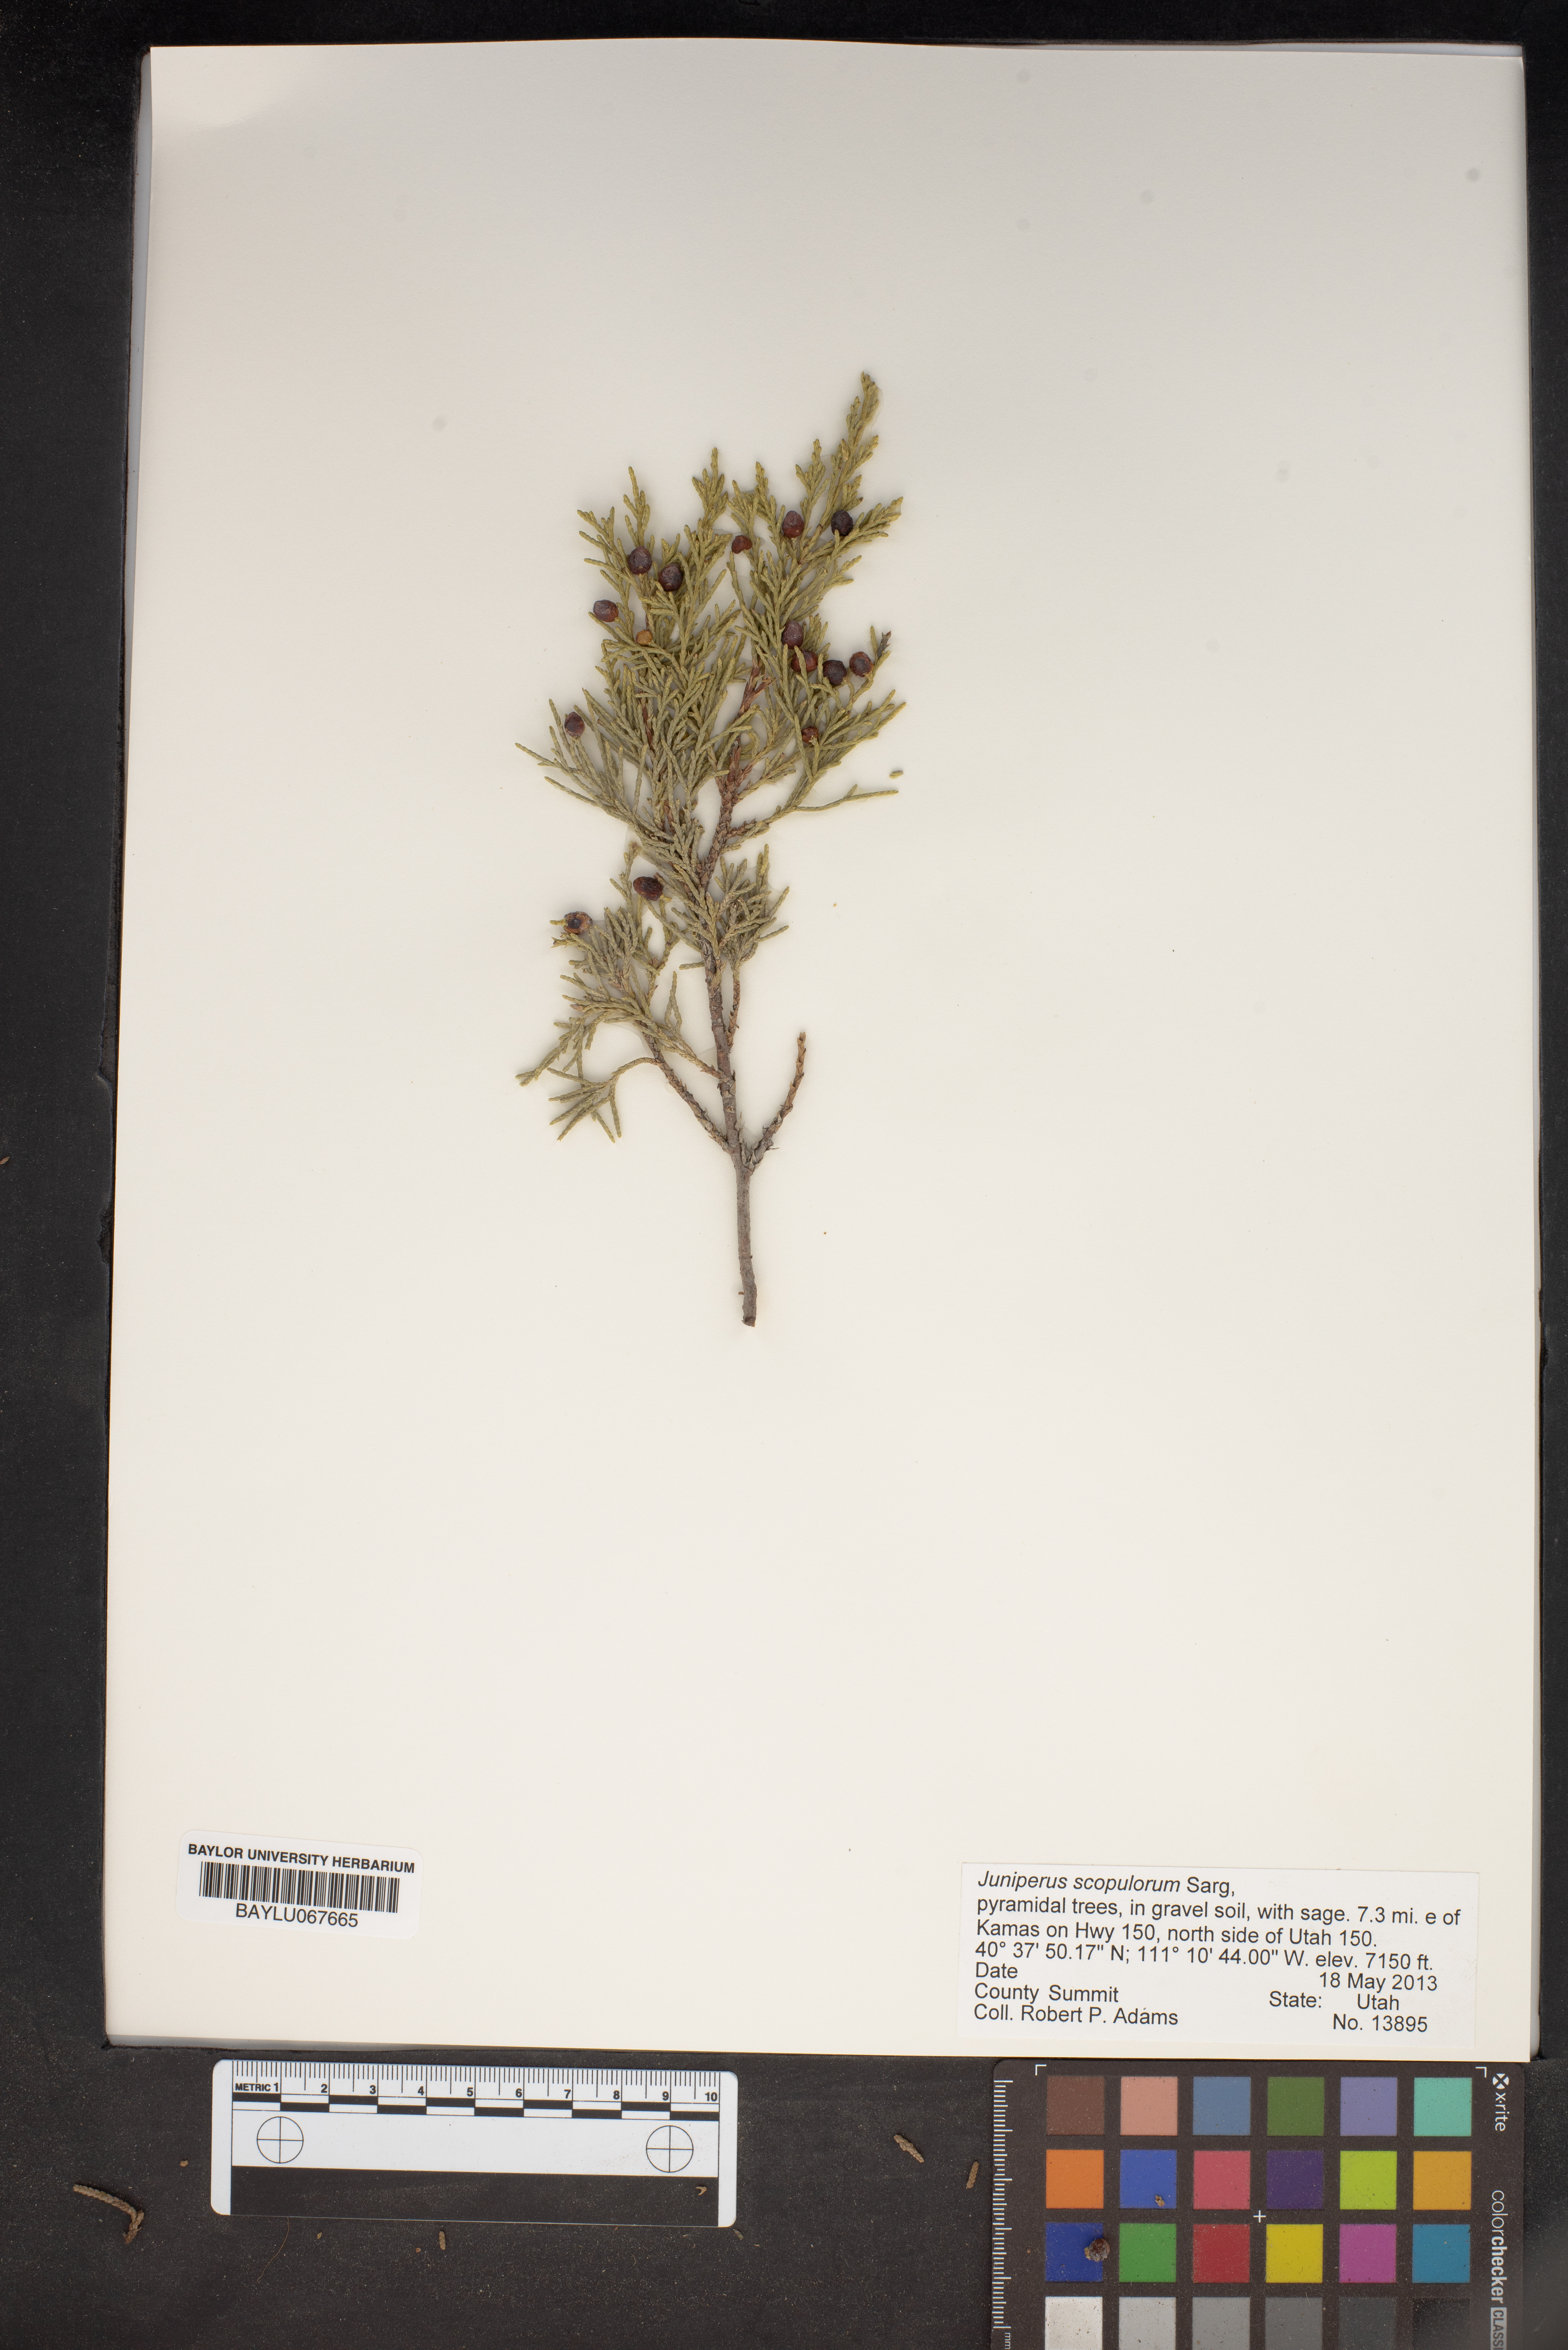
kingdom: Plantae
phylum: Tracheophyta
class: Pinopsida
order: Pinales
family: Cupressaceae
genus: Juniperus
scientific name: Juniperus scopulorum
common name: Rocky mountain juniper
